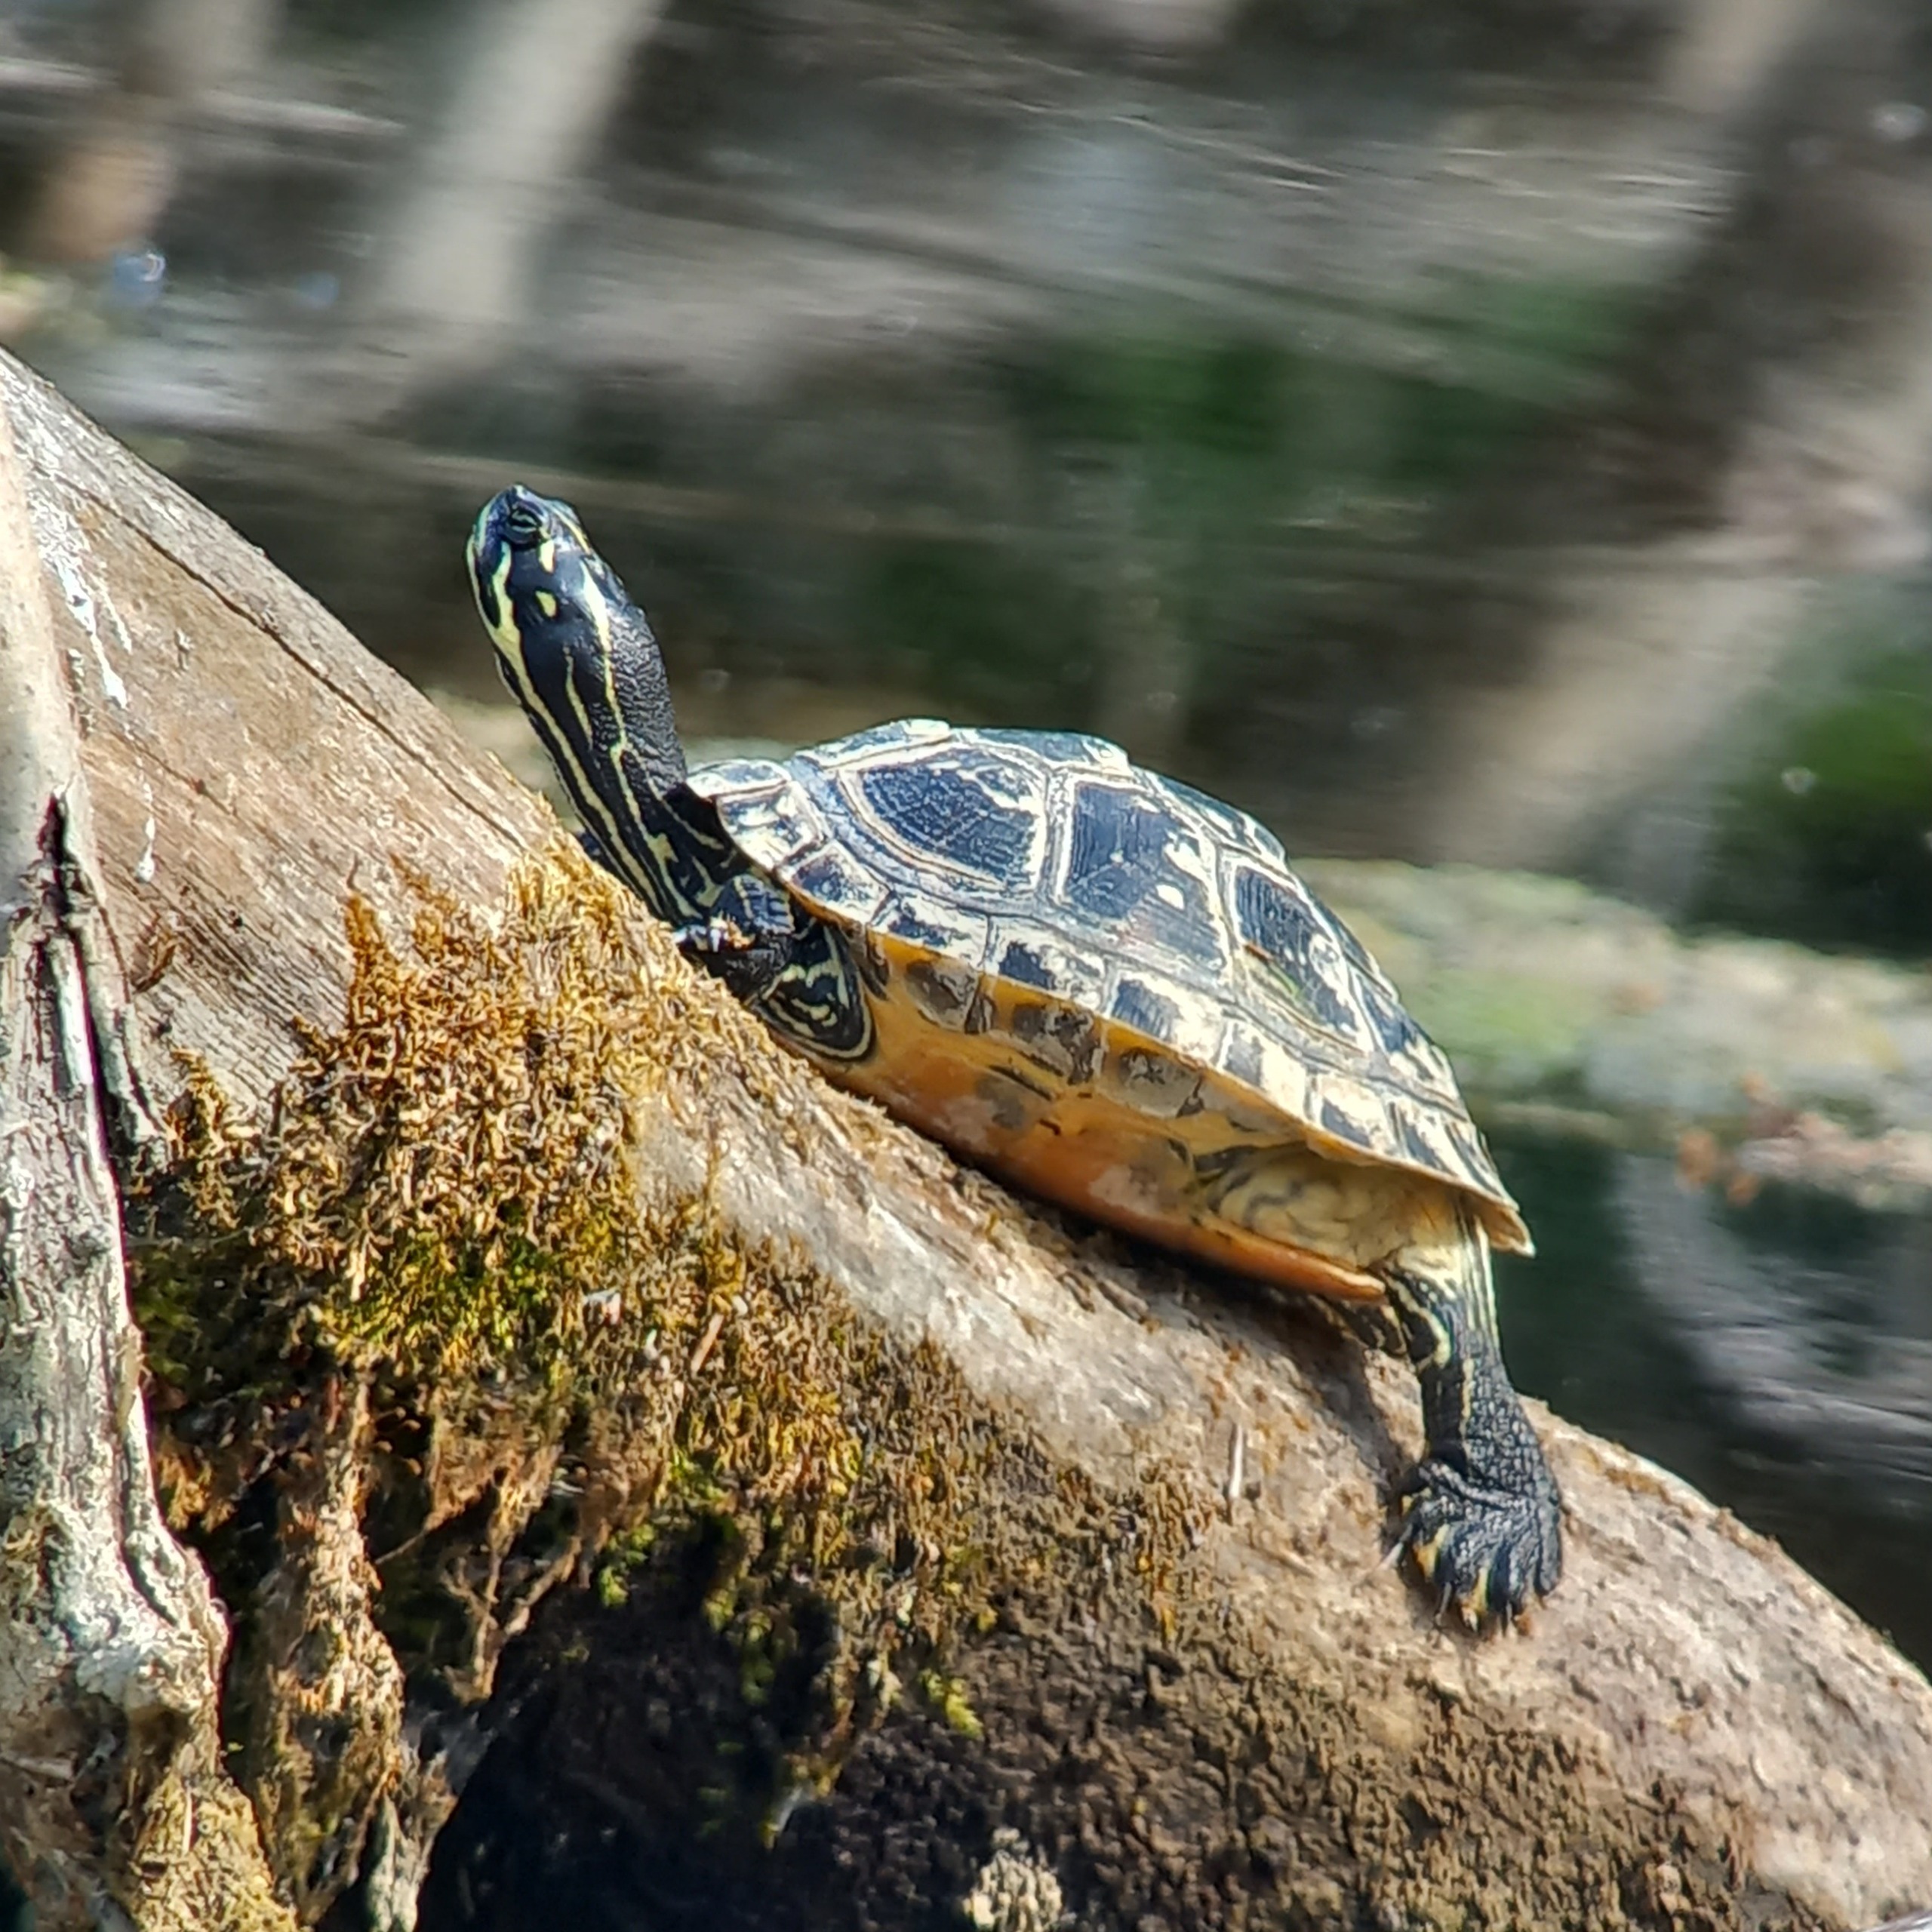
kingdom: Animalia
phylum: Chordata
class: Testudines
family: Emydidae
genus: Trachemys
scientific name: Trachemys scripta
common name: Guløret terrapin
